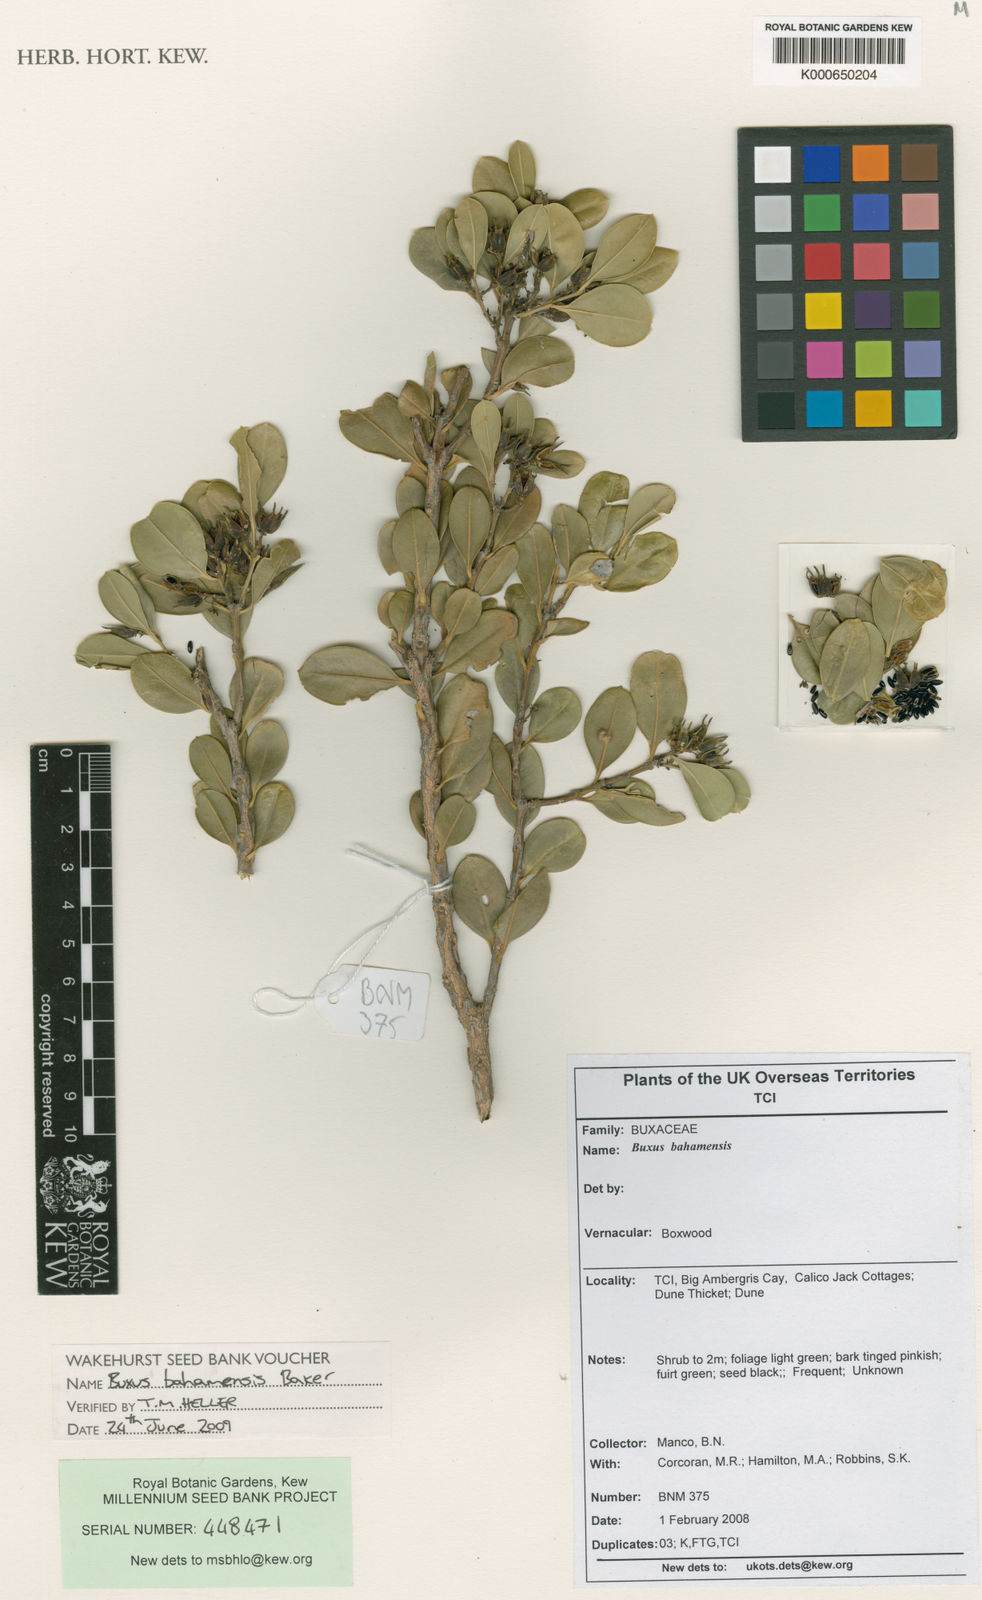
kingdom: Plantae
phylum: Tracheophyta
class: Magnoliopsida
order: Buxales
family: Buxaceae
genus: Buxus
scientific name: Buxus bahamensis
